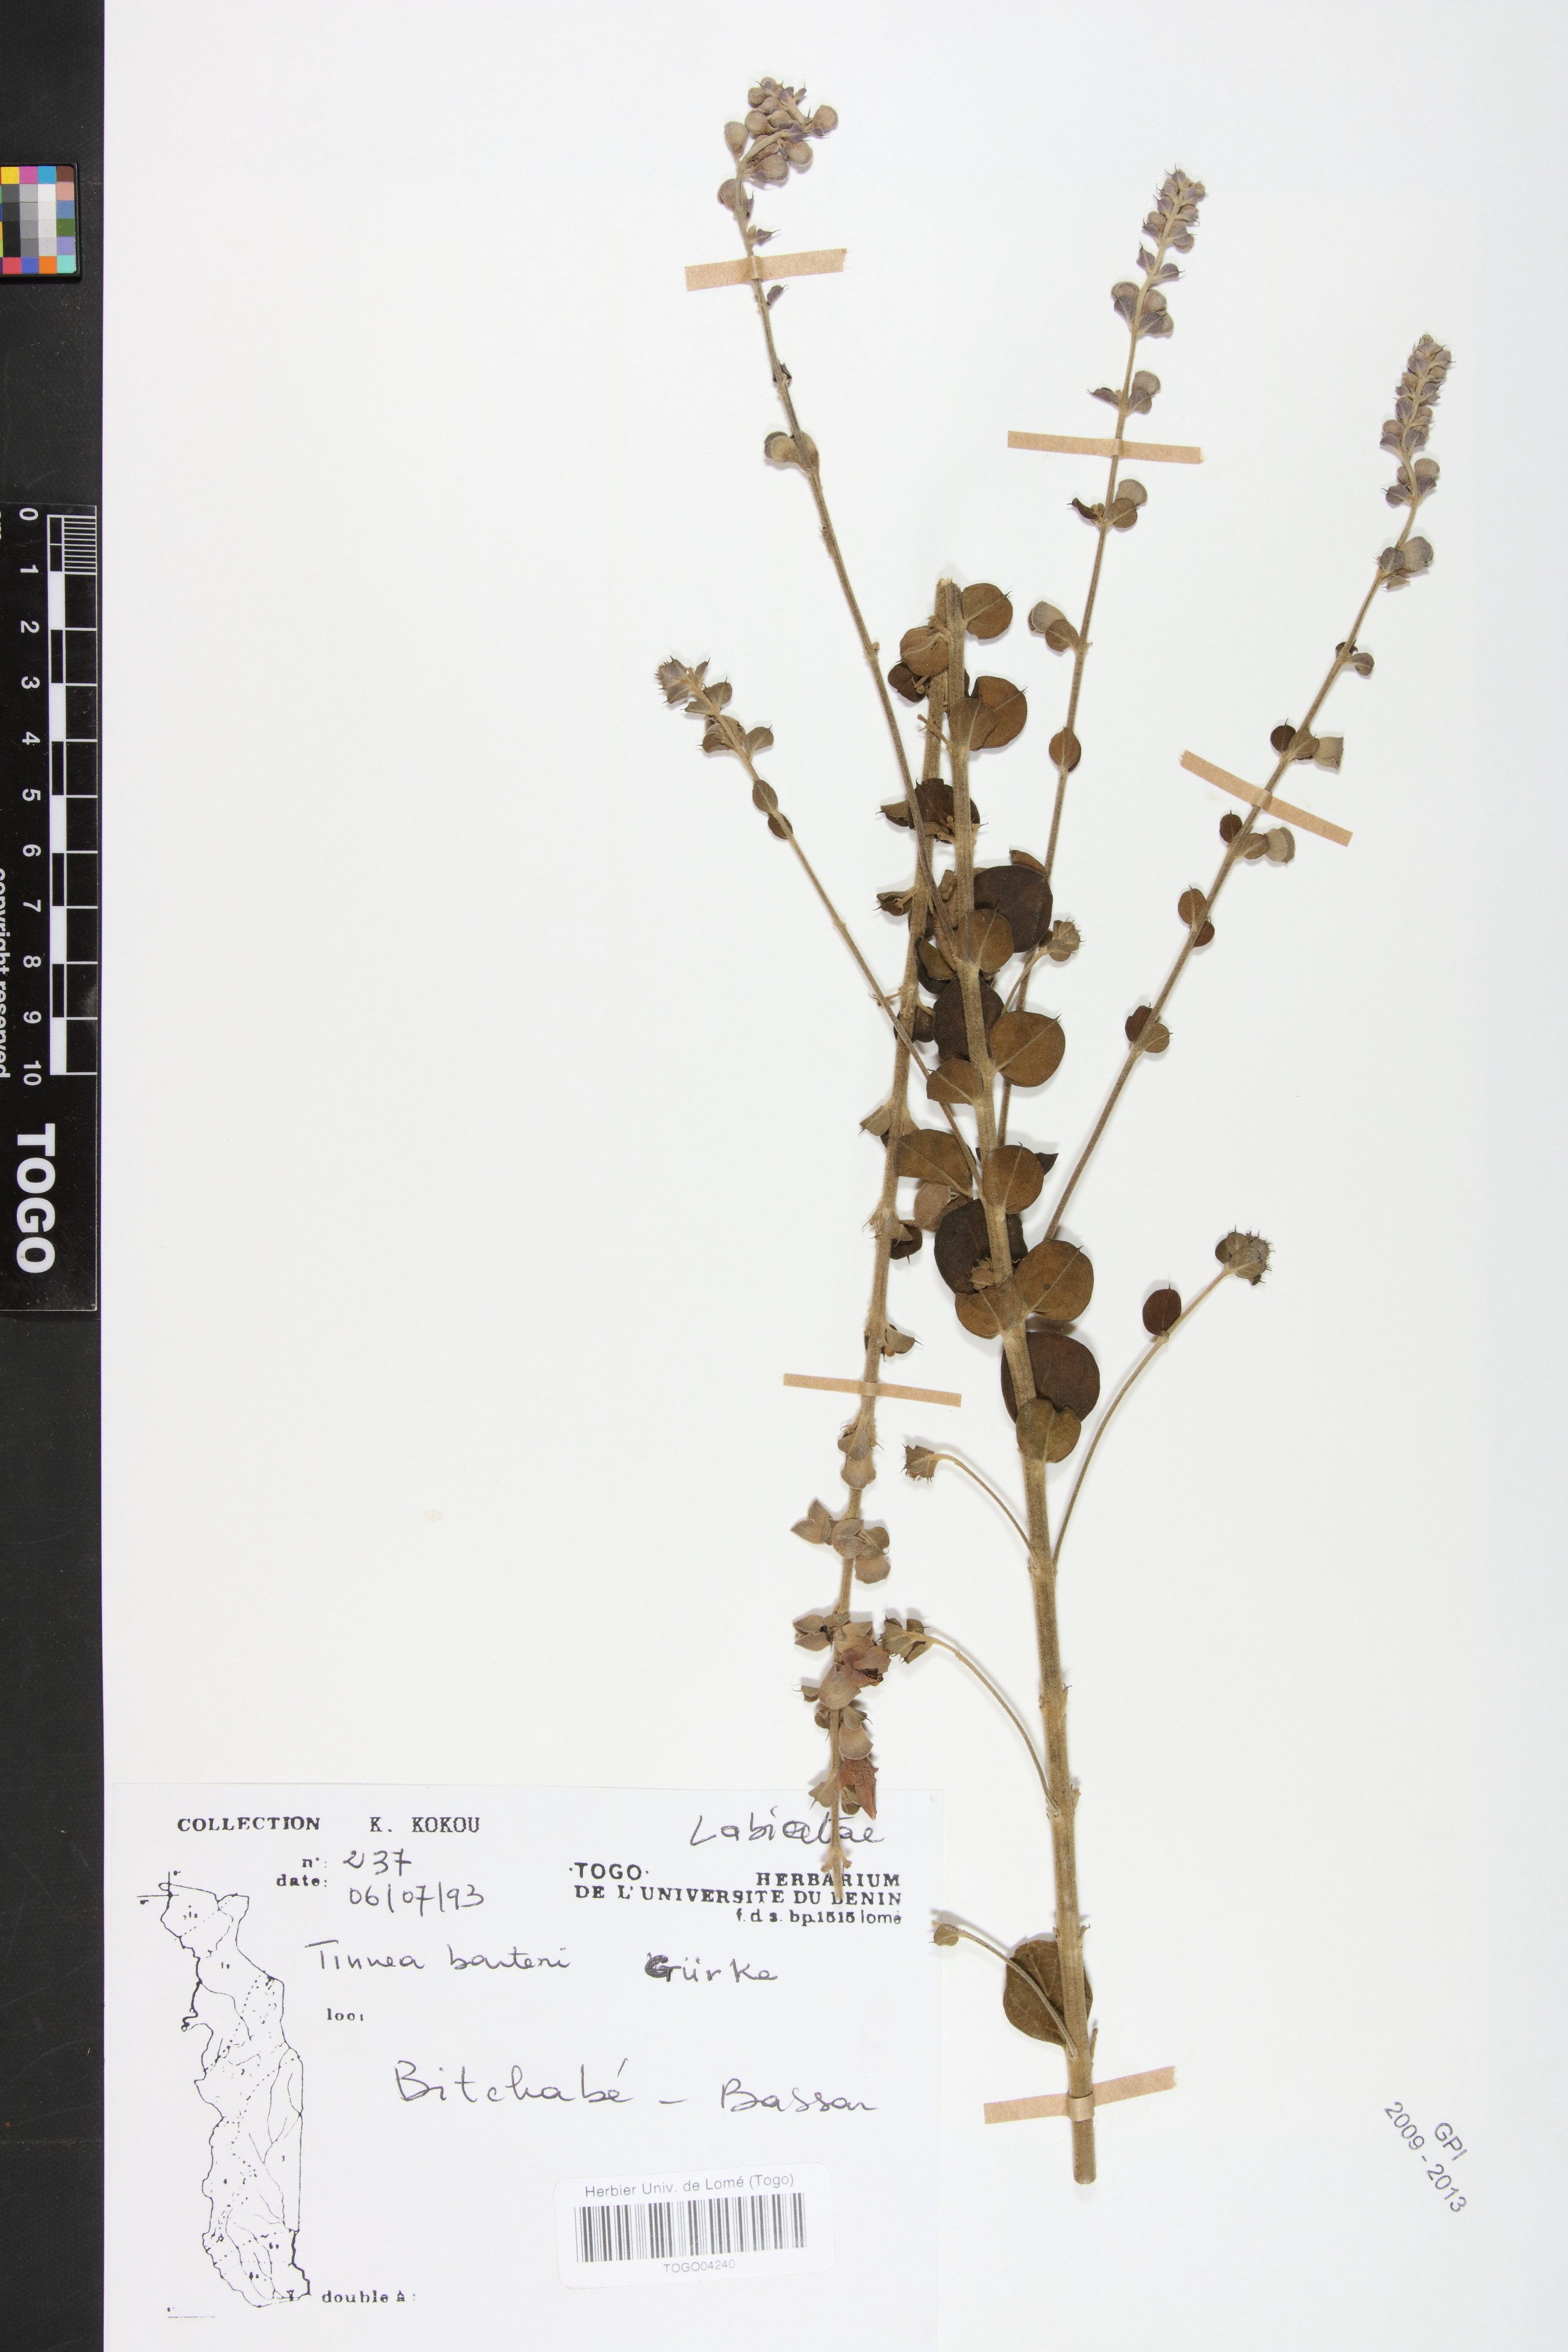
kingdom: Plantae
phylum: Tracheophyta
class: Magnoliopsida
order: Lamiales
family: Lamiaceae
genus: Tinnea
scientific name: Tinnea barteri
